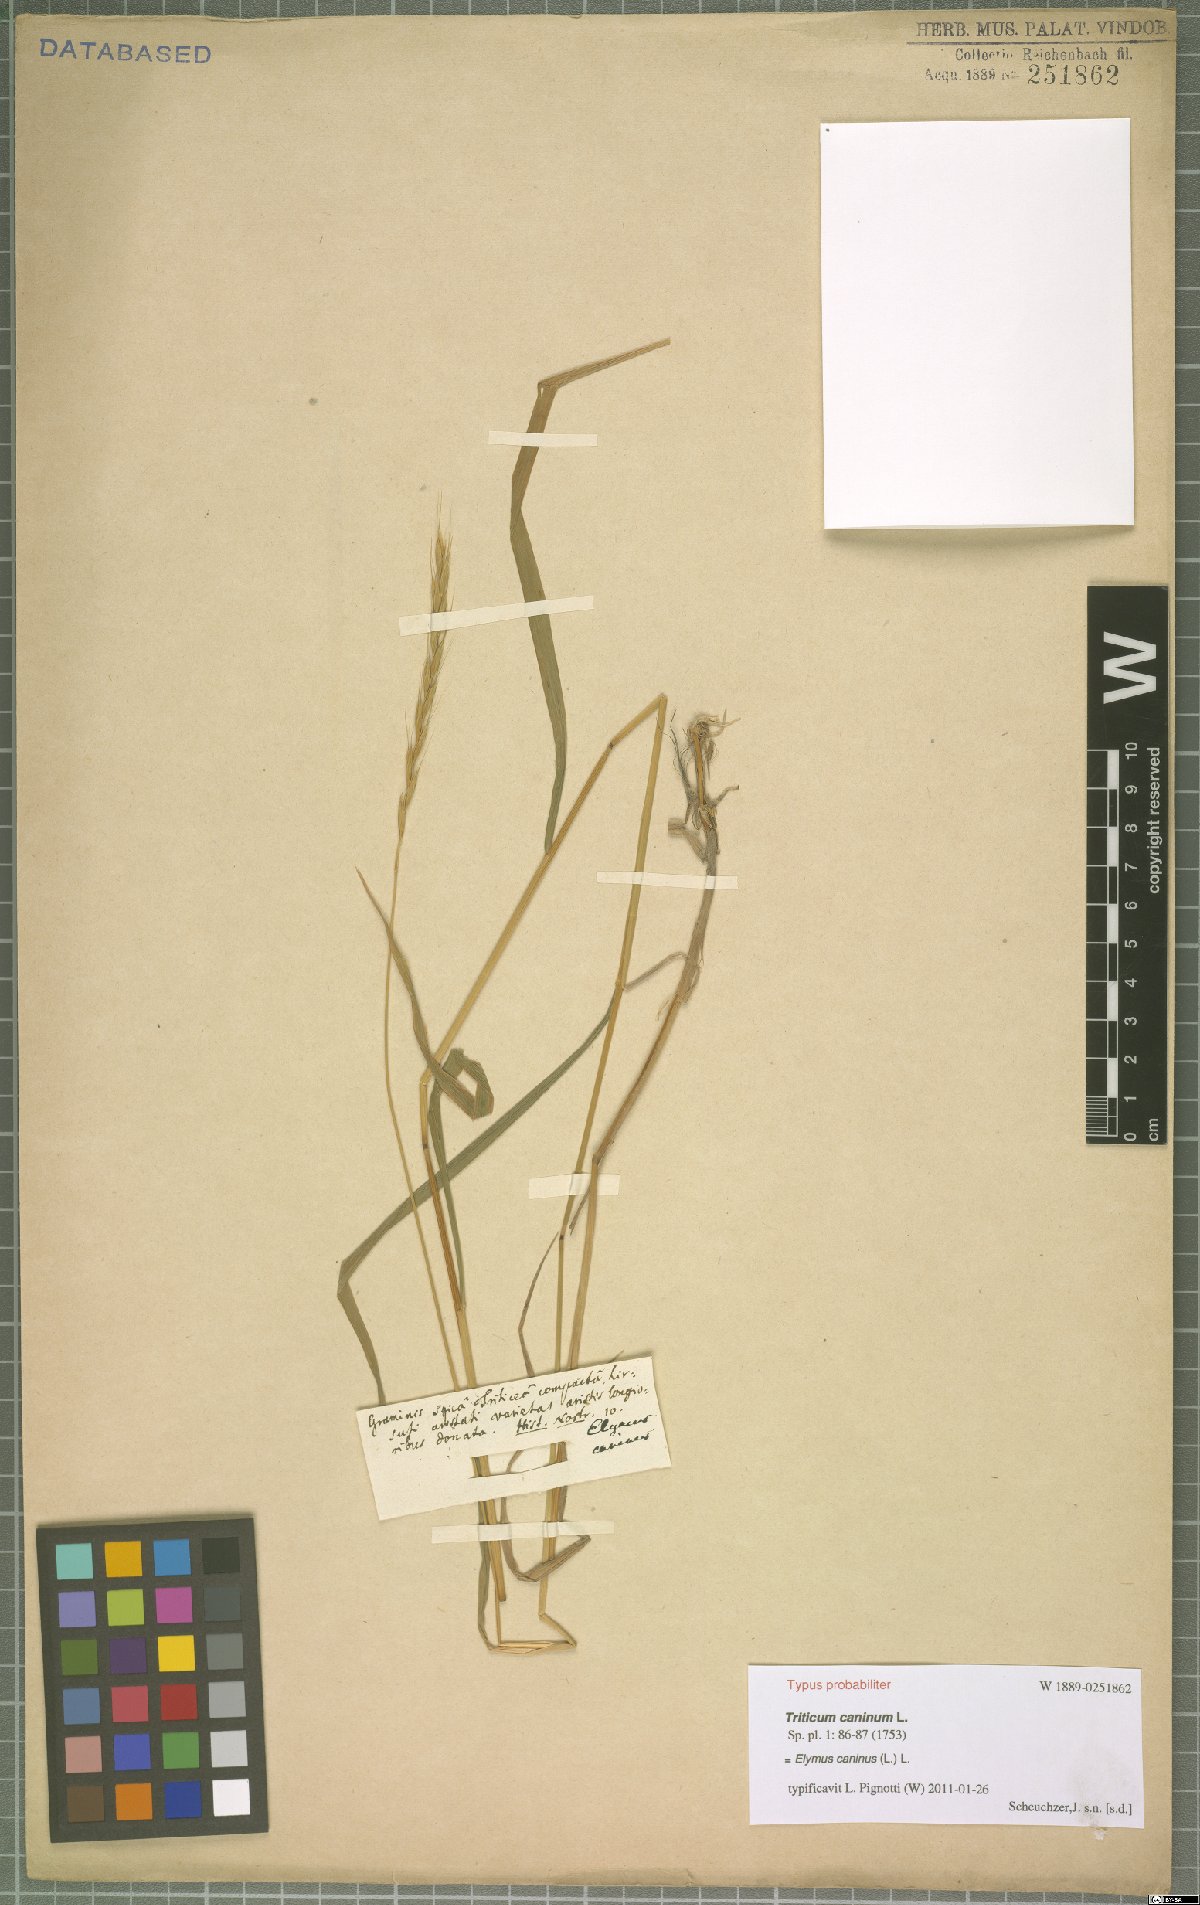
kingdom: Plantae
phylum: Tracheophyta
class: Liliopsida
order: Poales
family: Poaceae
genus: Elymus
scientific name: Elymus caninus
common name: Bearded couch
